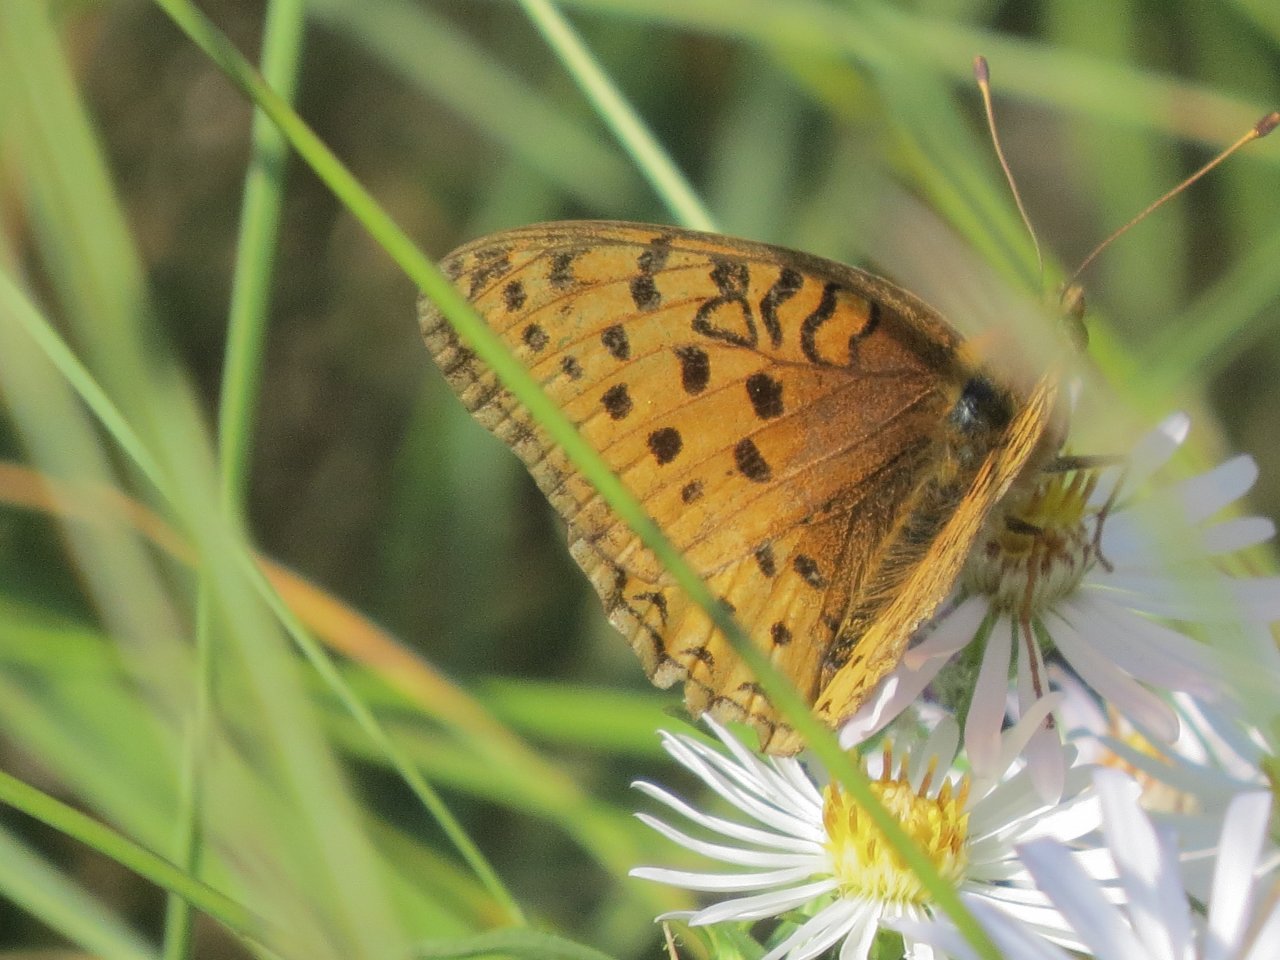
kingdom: Animalia
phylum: Arthropoda
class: Insecta
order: Lepidoptera
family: Nymphalidae
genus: Speyeria
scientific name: Speyeria mormonia
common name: Mormon Fritillary
